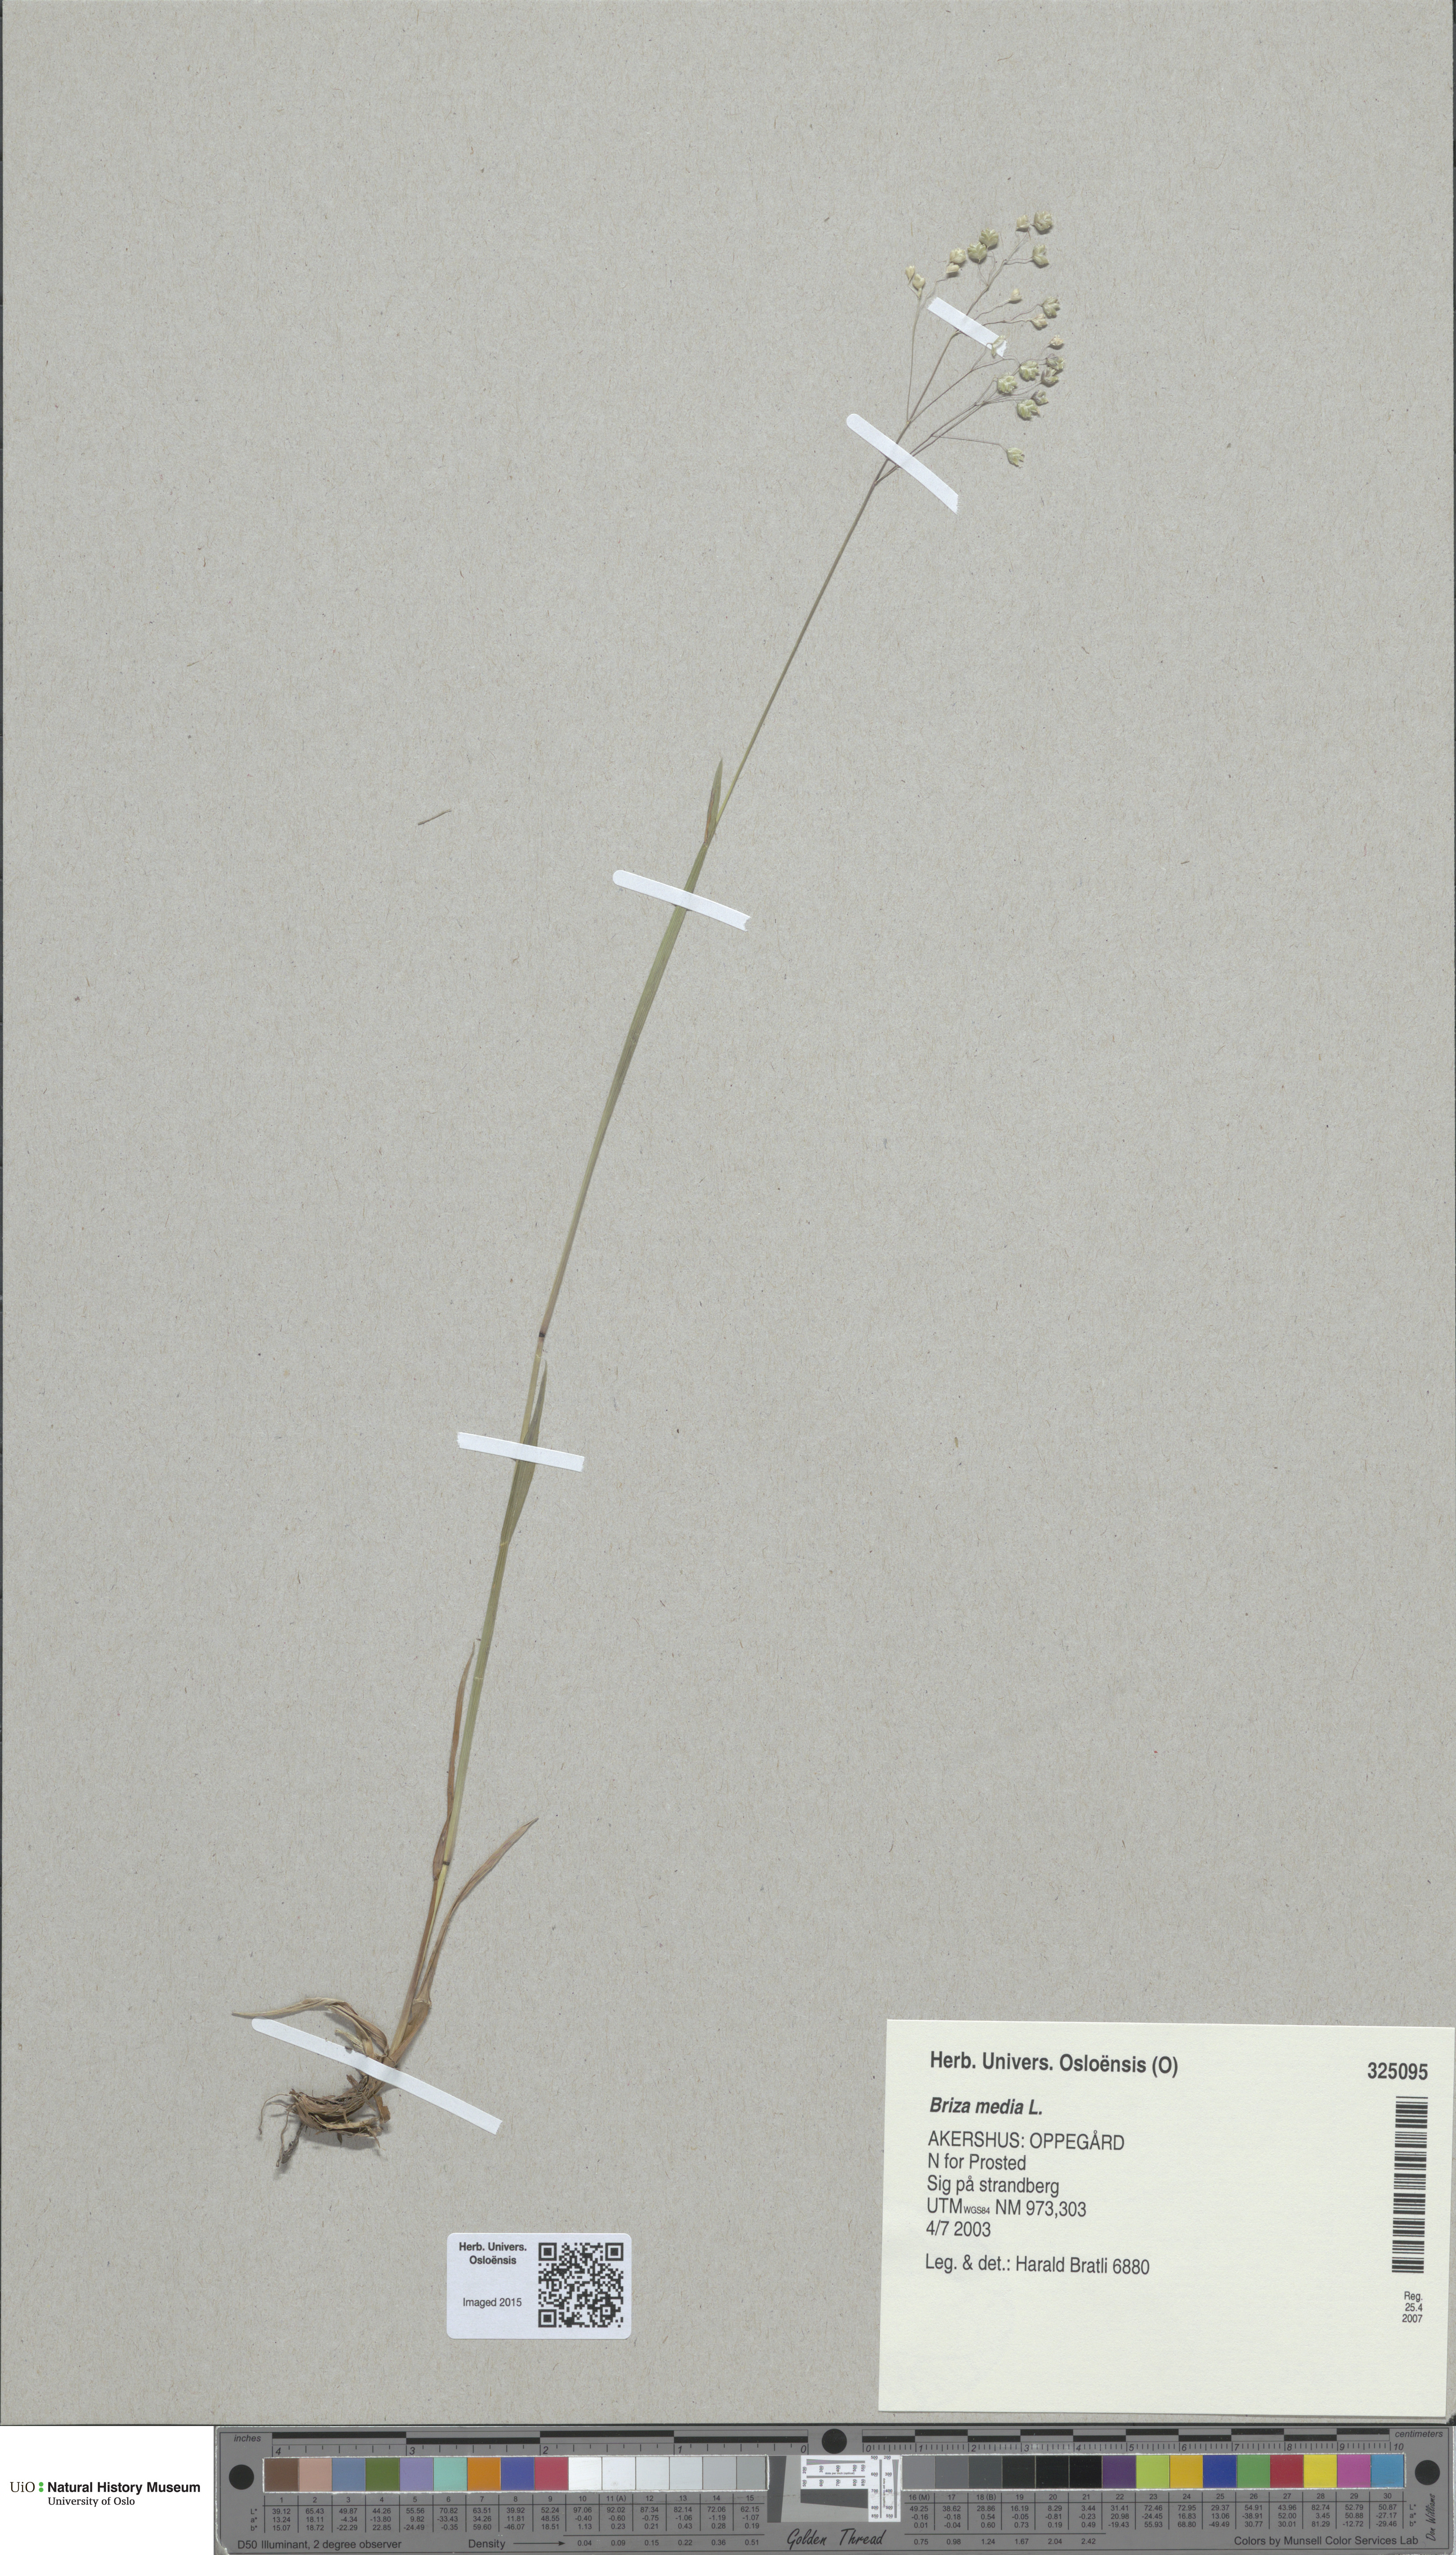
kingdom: Plantae
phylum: Tracheophyta
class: Liliopsida
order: Poales
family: Poaceae
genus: Briza
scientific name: Briza media
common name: Quaking grass
